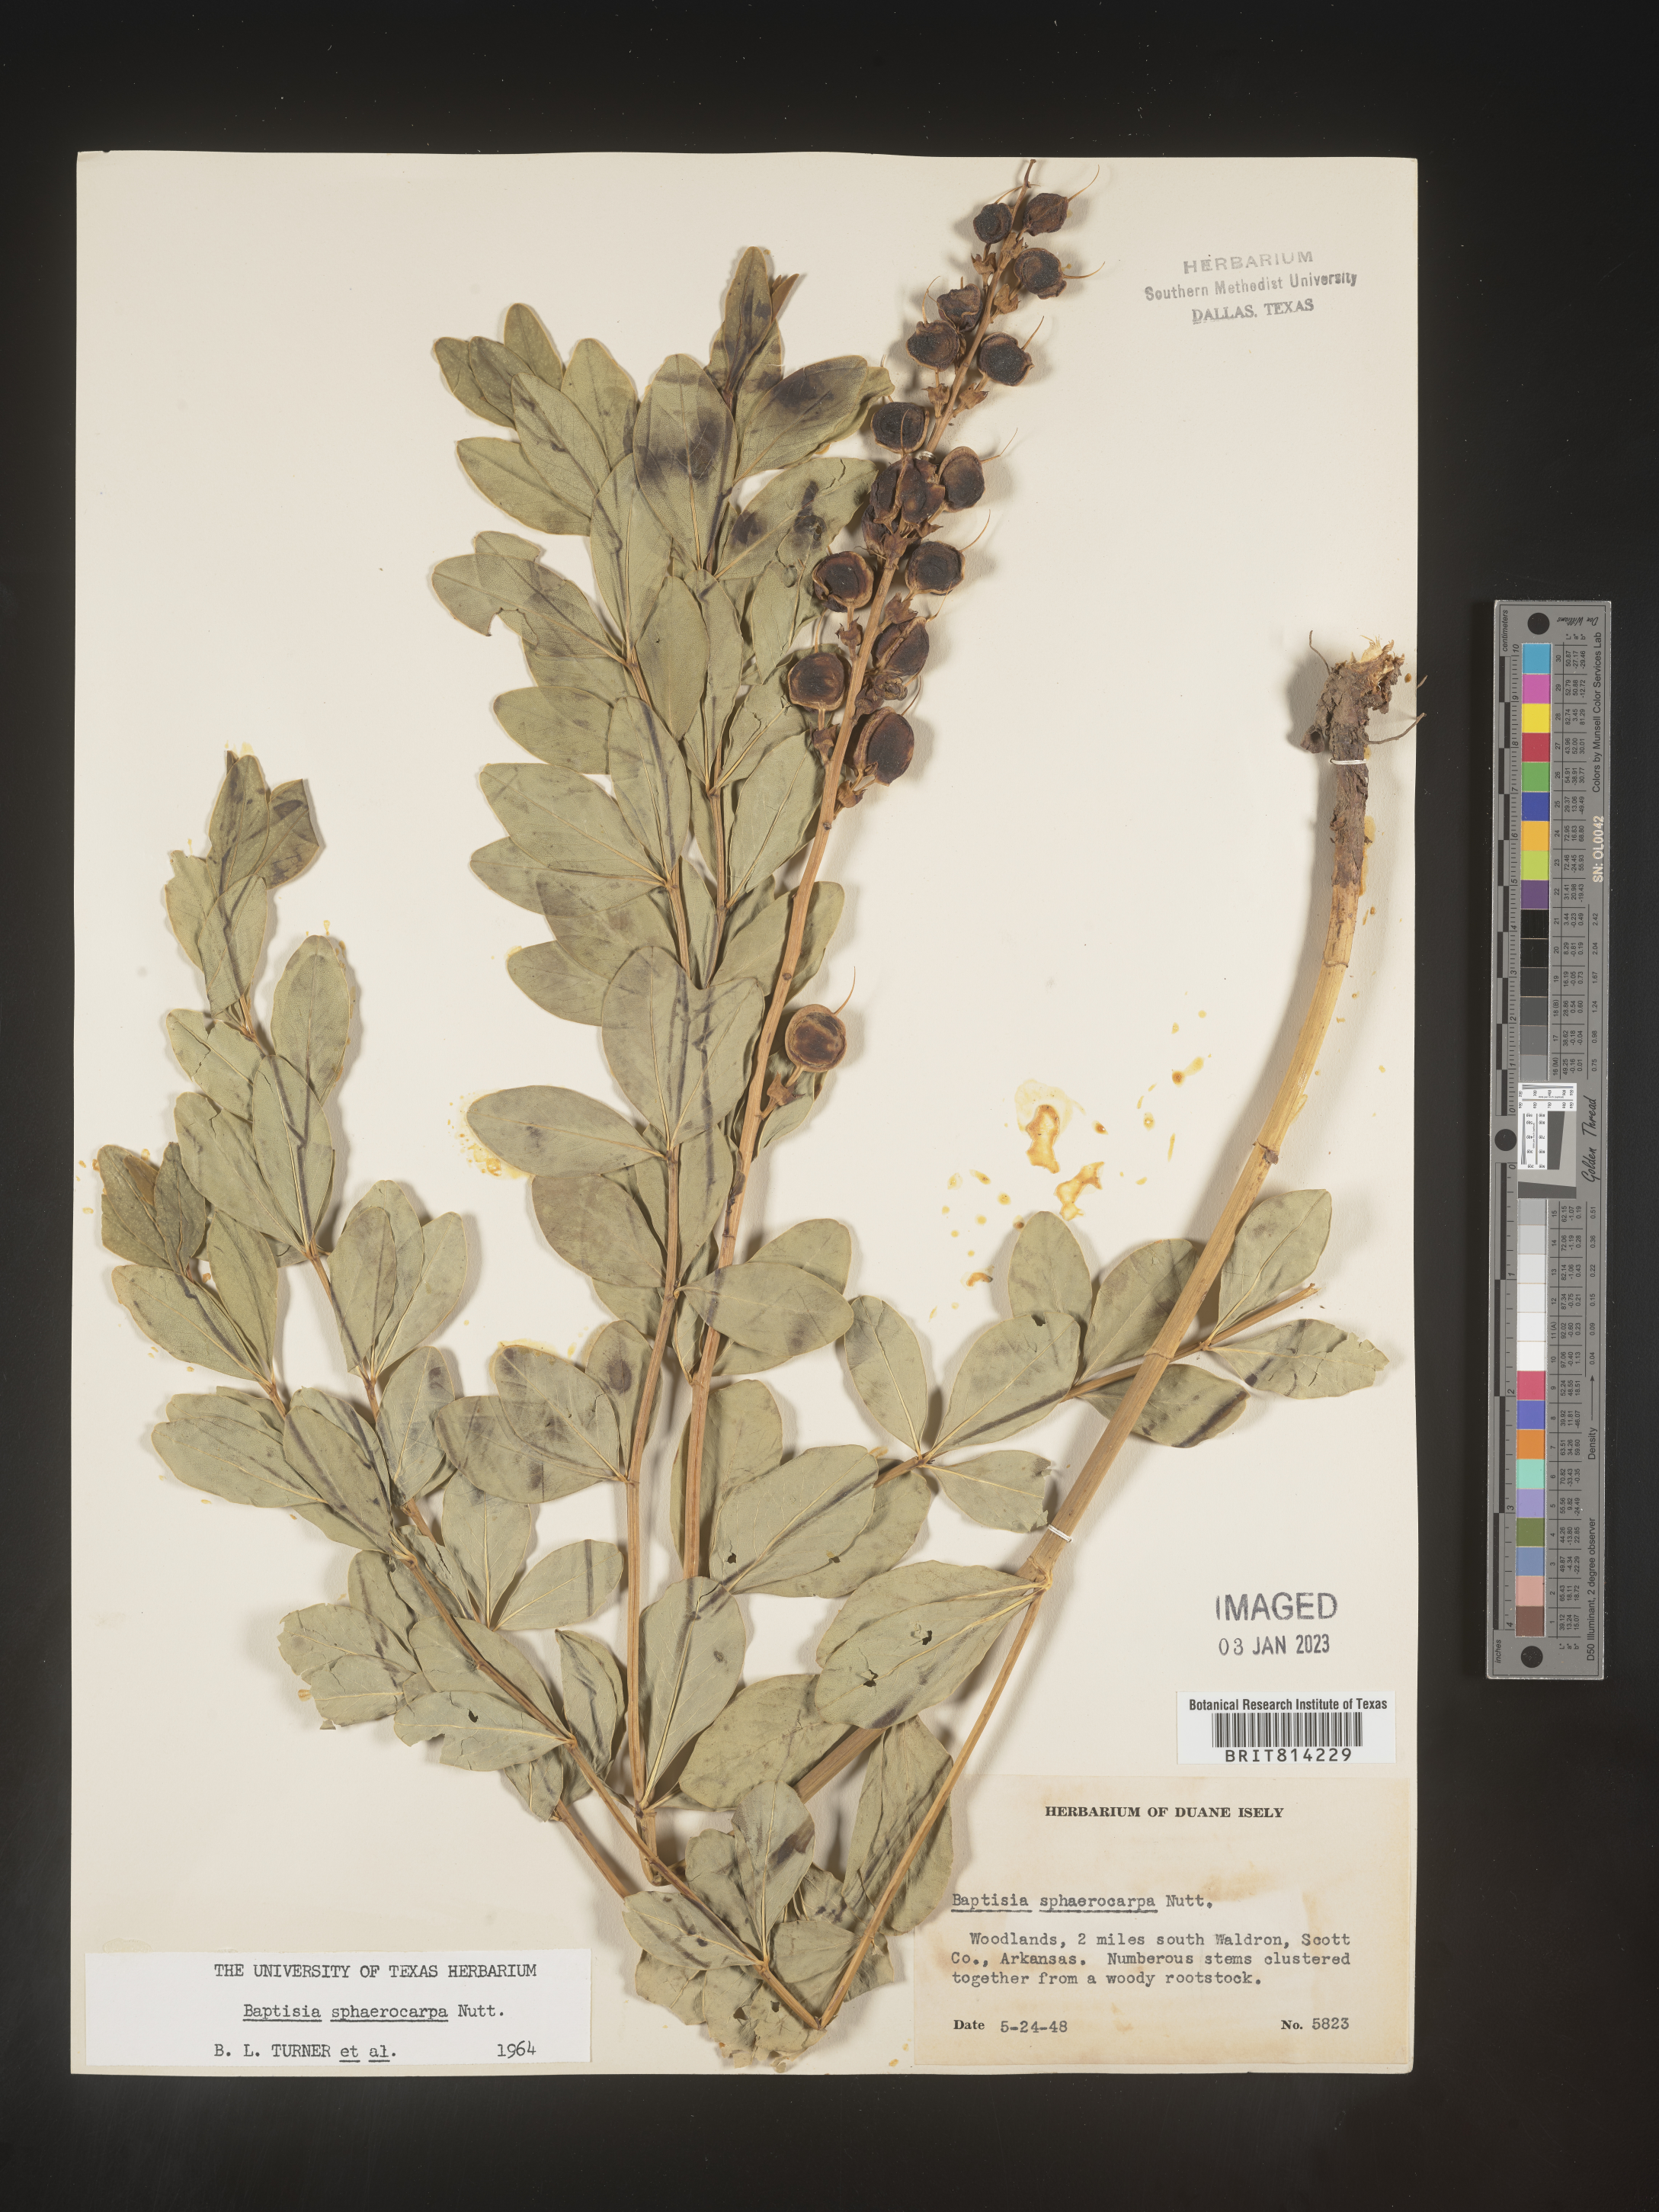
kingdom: Plantae
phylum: Tracheophyta
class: Magnoliopsida
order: Fabales
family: Fabaceae
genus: Baptisia
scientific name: Baptisia sphaerocarpa
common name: Round wild indigo
